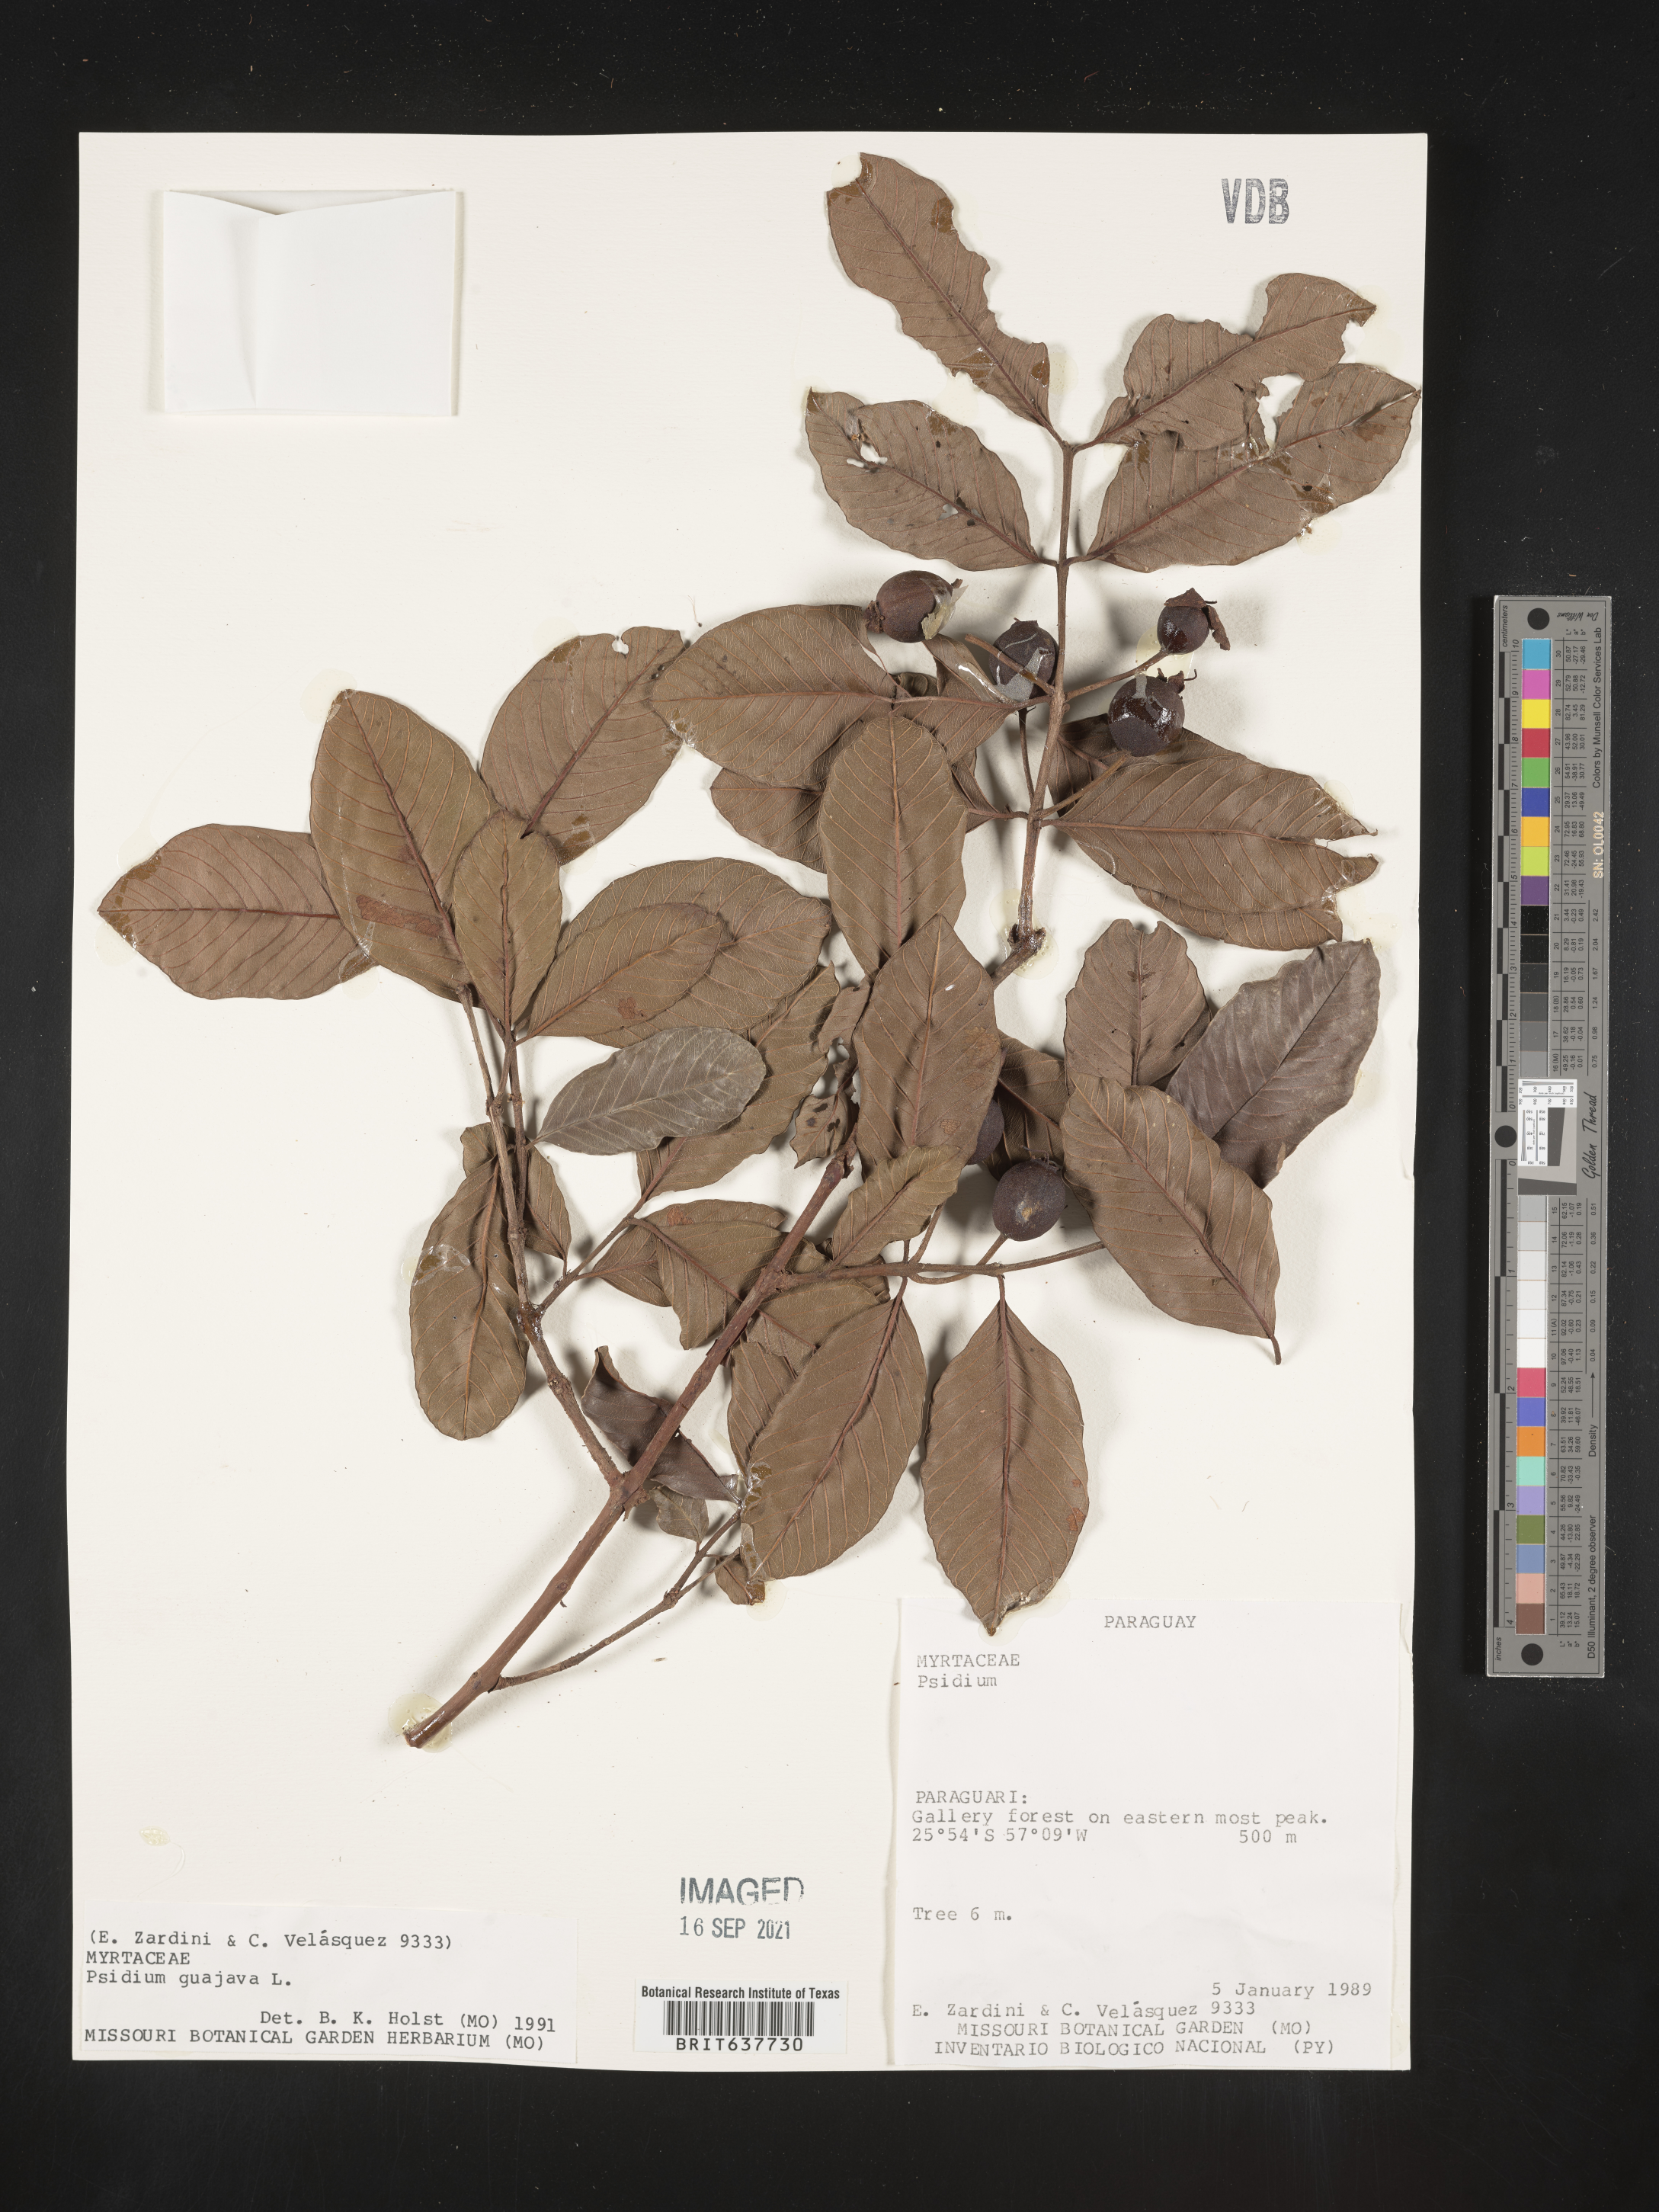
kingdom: Plantae
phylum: Tracheophyta
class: Magnoliopsida
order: Myrtales
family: Myrtaceae
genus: Psidium
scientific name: Psidium
